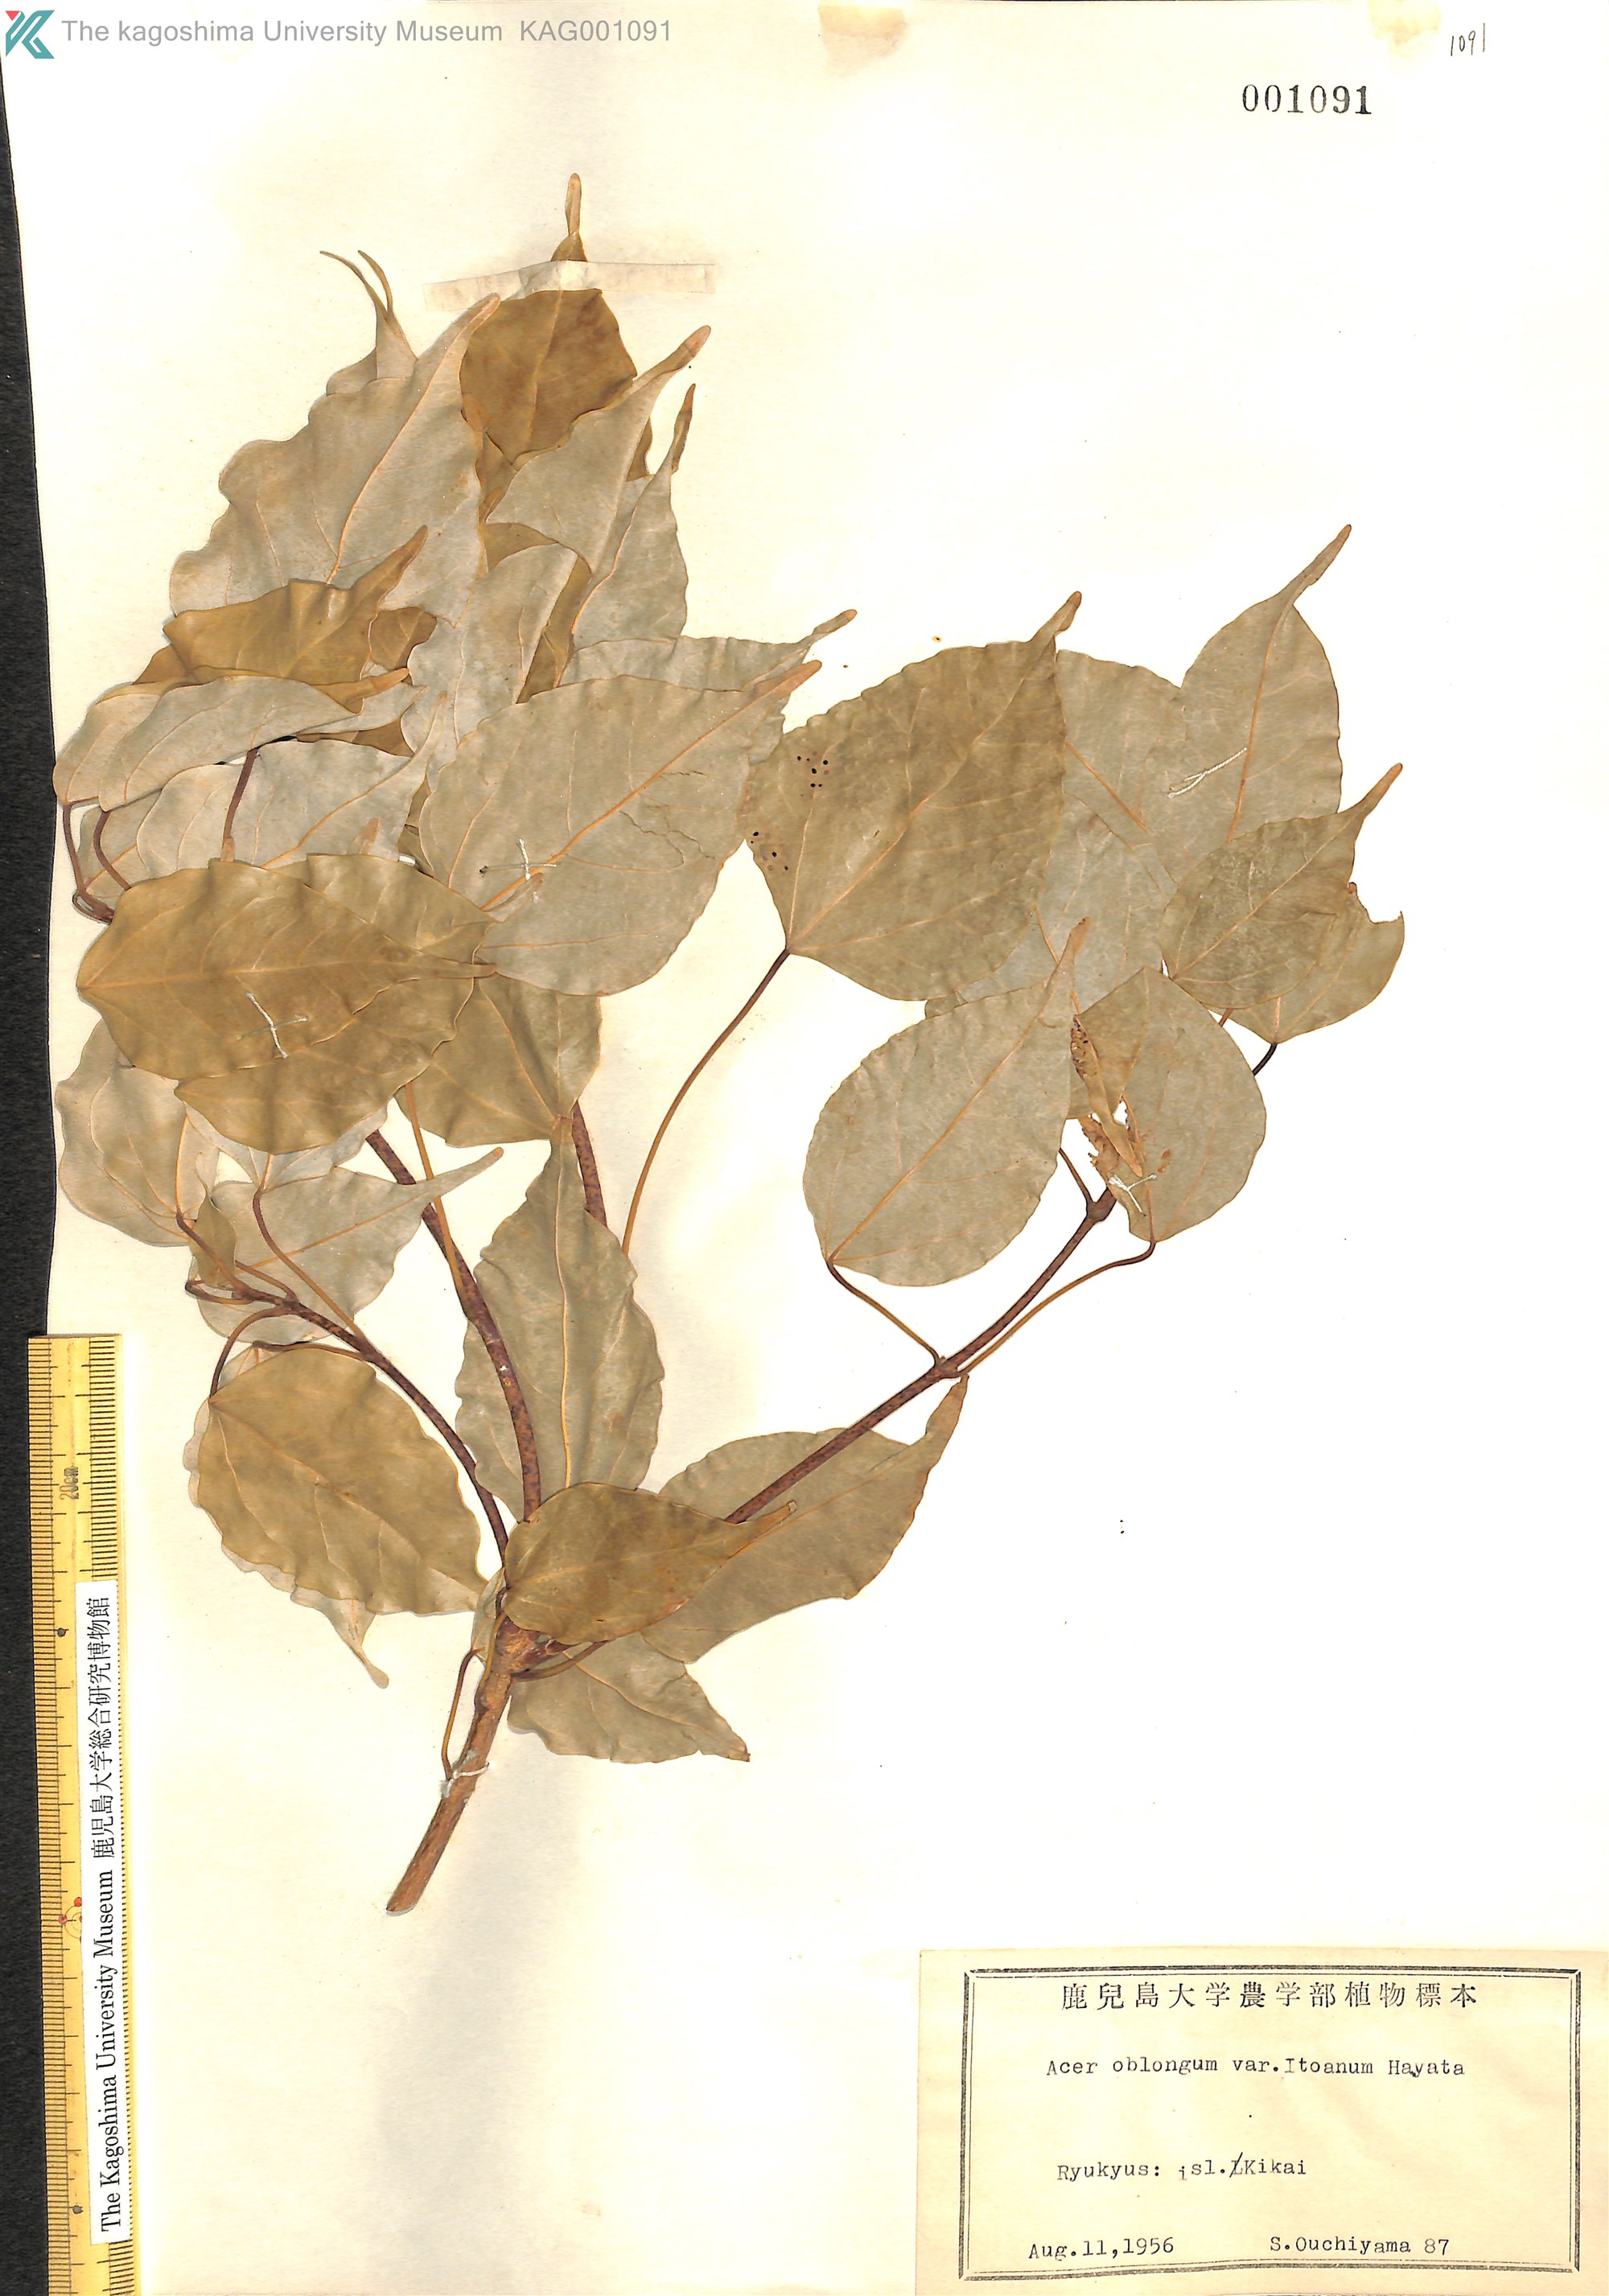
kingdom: Plantae
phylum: Tracheophyta
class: Magnoliopsida
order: Sapindales
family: Sapindaceae
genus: Acer
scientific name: Acer oblongum
